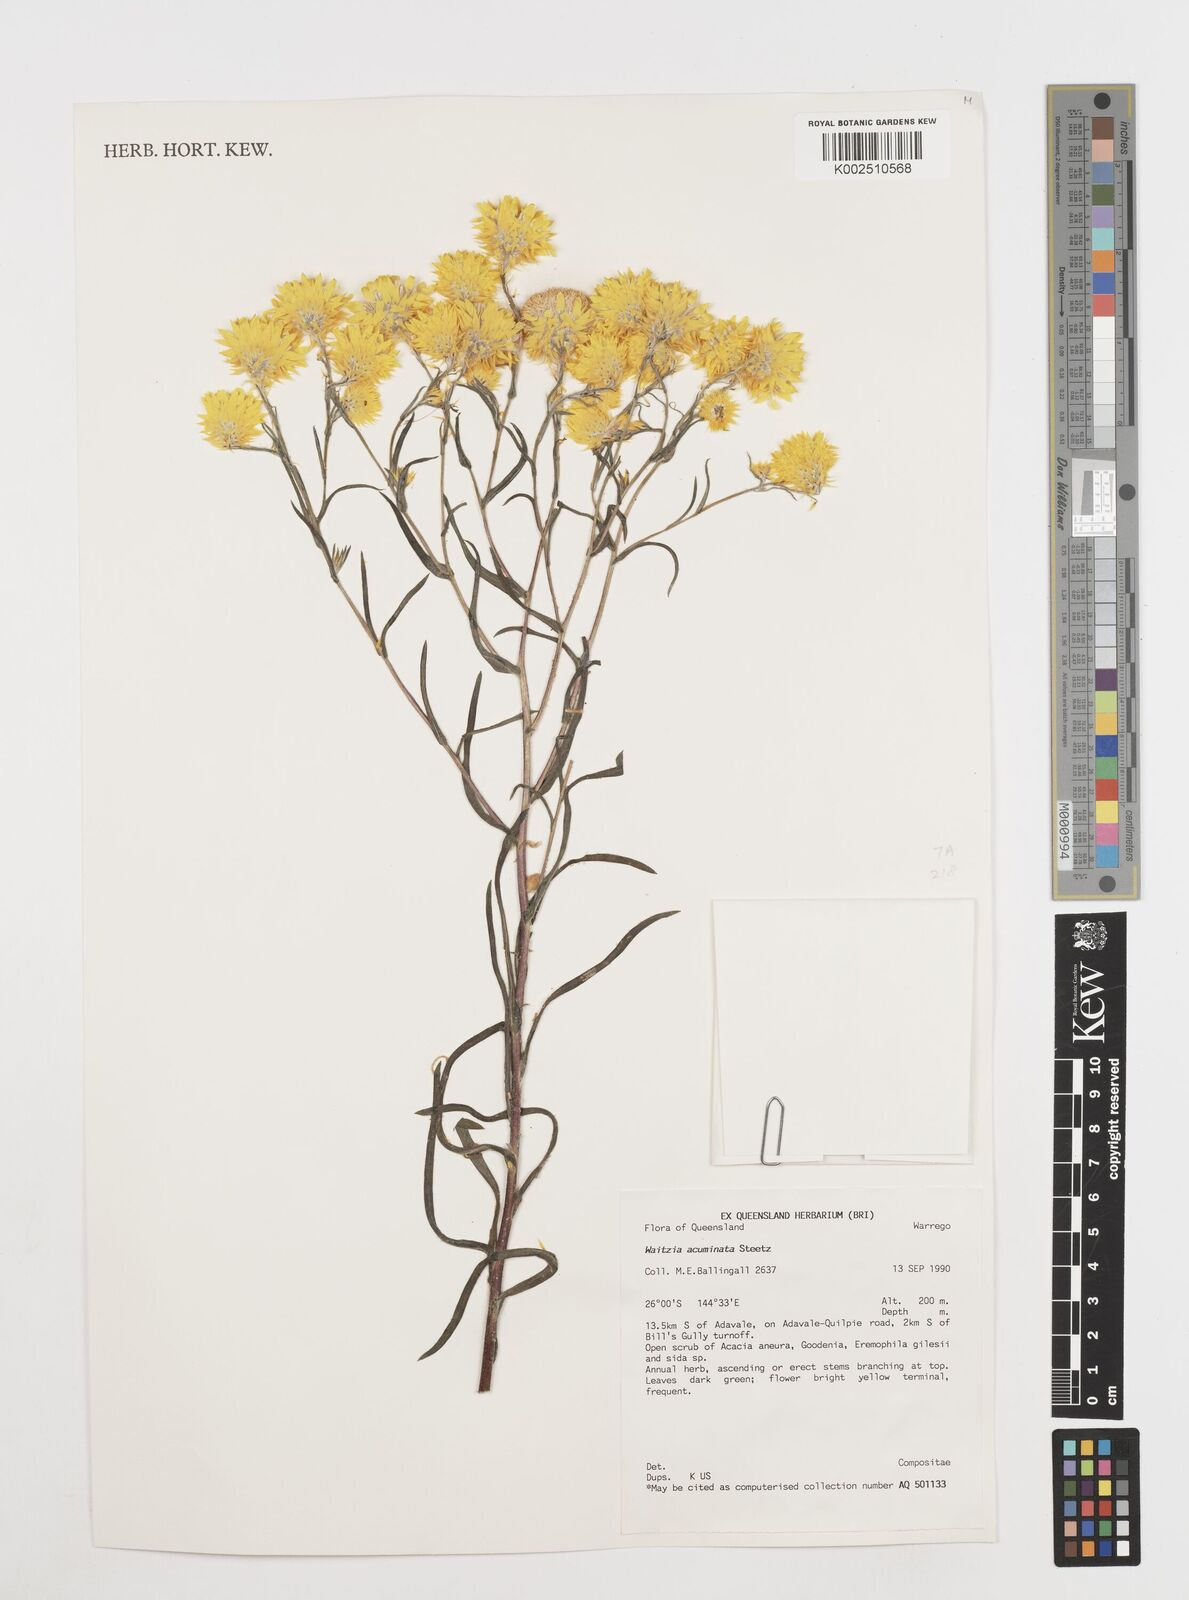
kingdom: Plantae
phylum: Tracheophyta
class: Magnoliopsida
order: Asterales
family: Asteraceae
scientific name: Asteraceae
